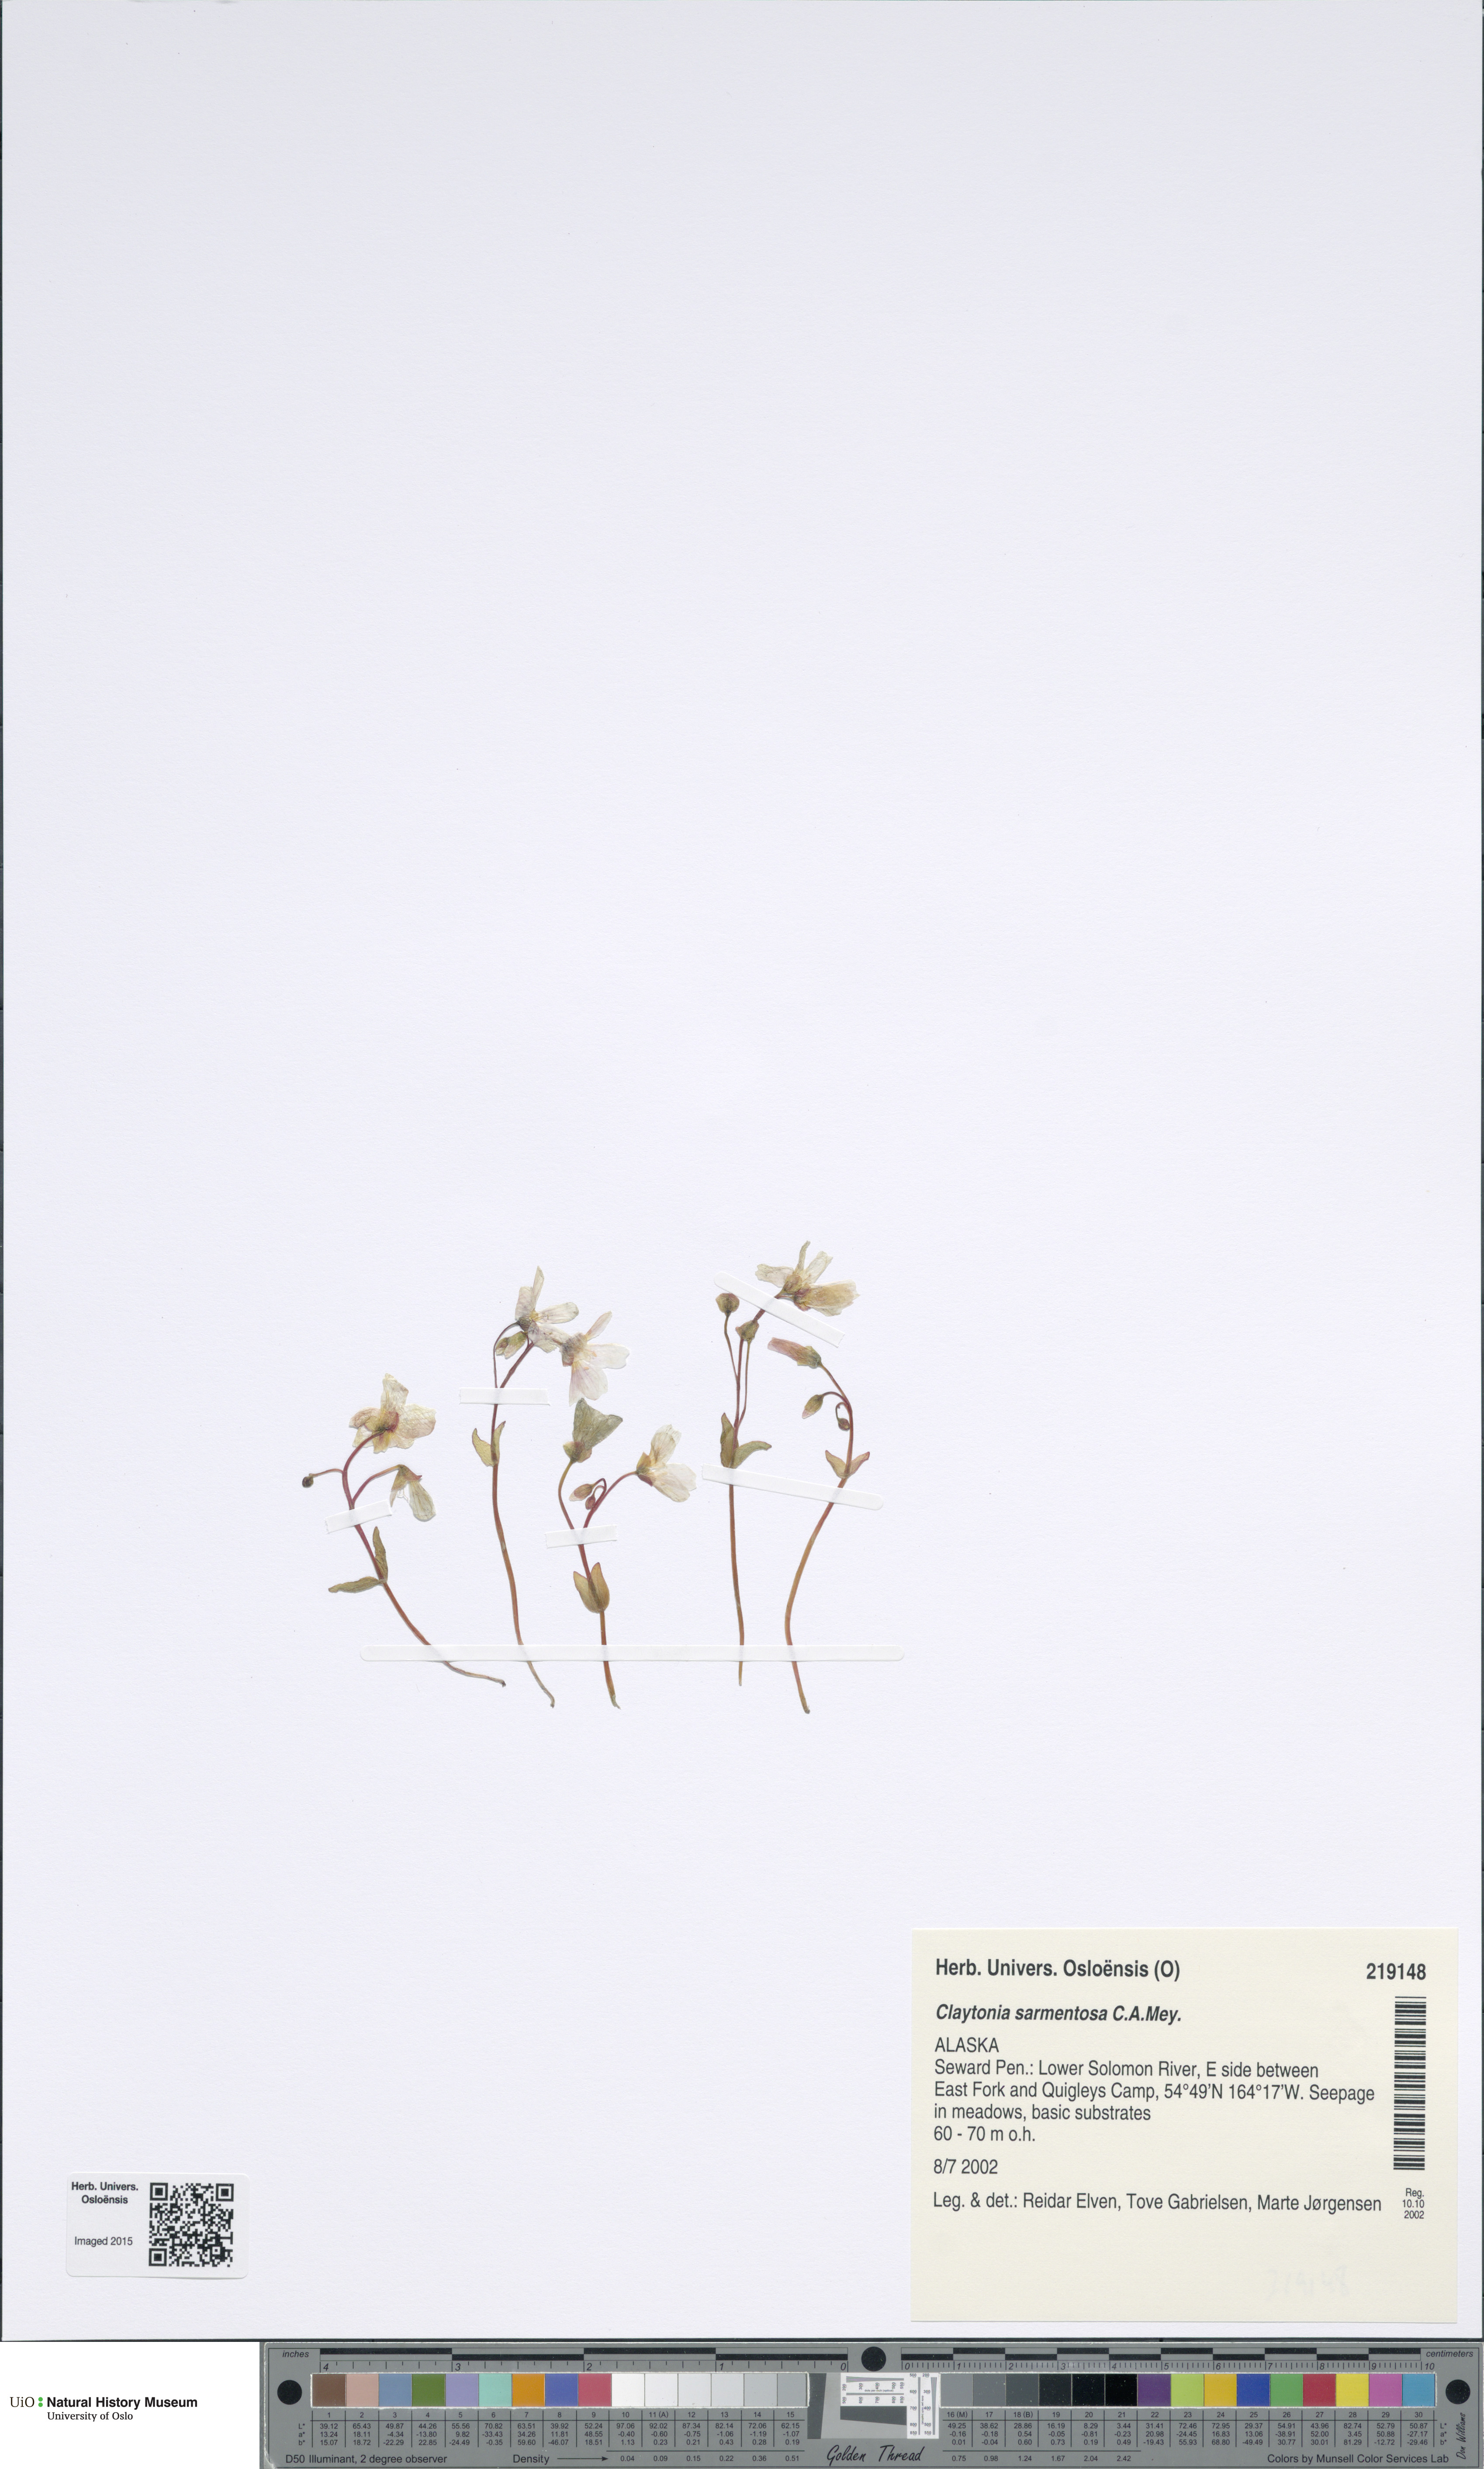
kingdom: Plantae
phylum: Tracheophyta
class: Magnoliopsida
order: Caryophyllales
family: Montiaceae
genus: Claytonia
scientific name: Claytonia sarmentosa
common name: Alaska spring beauty
